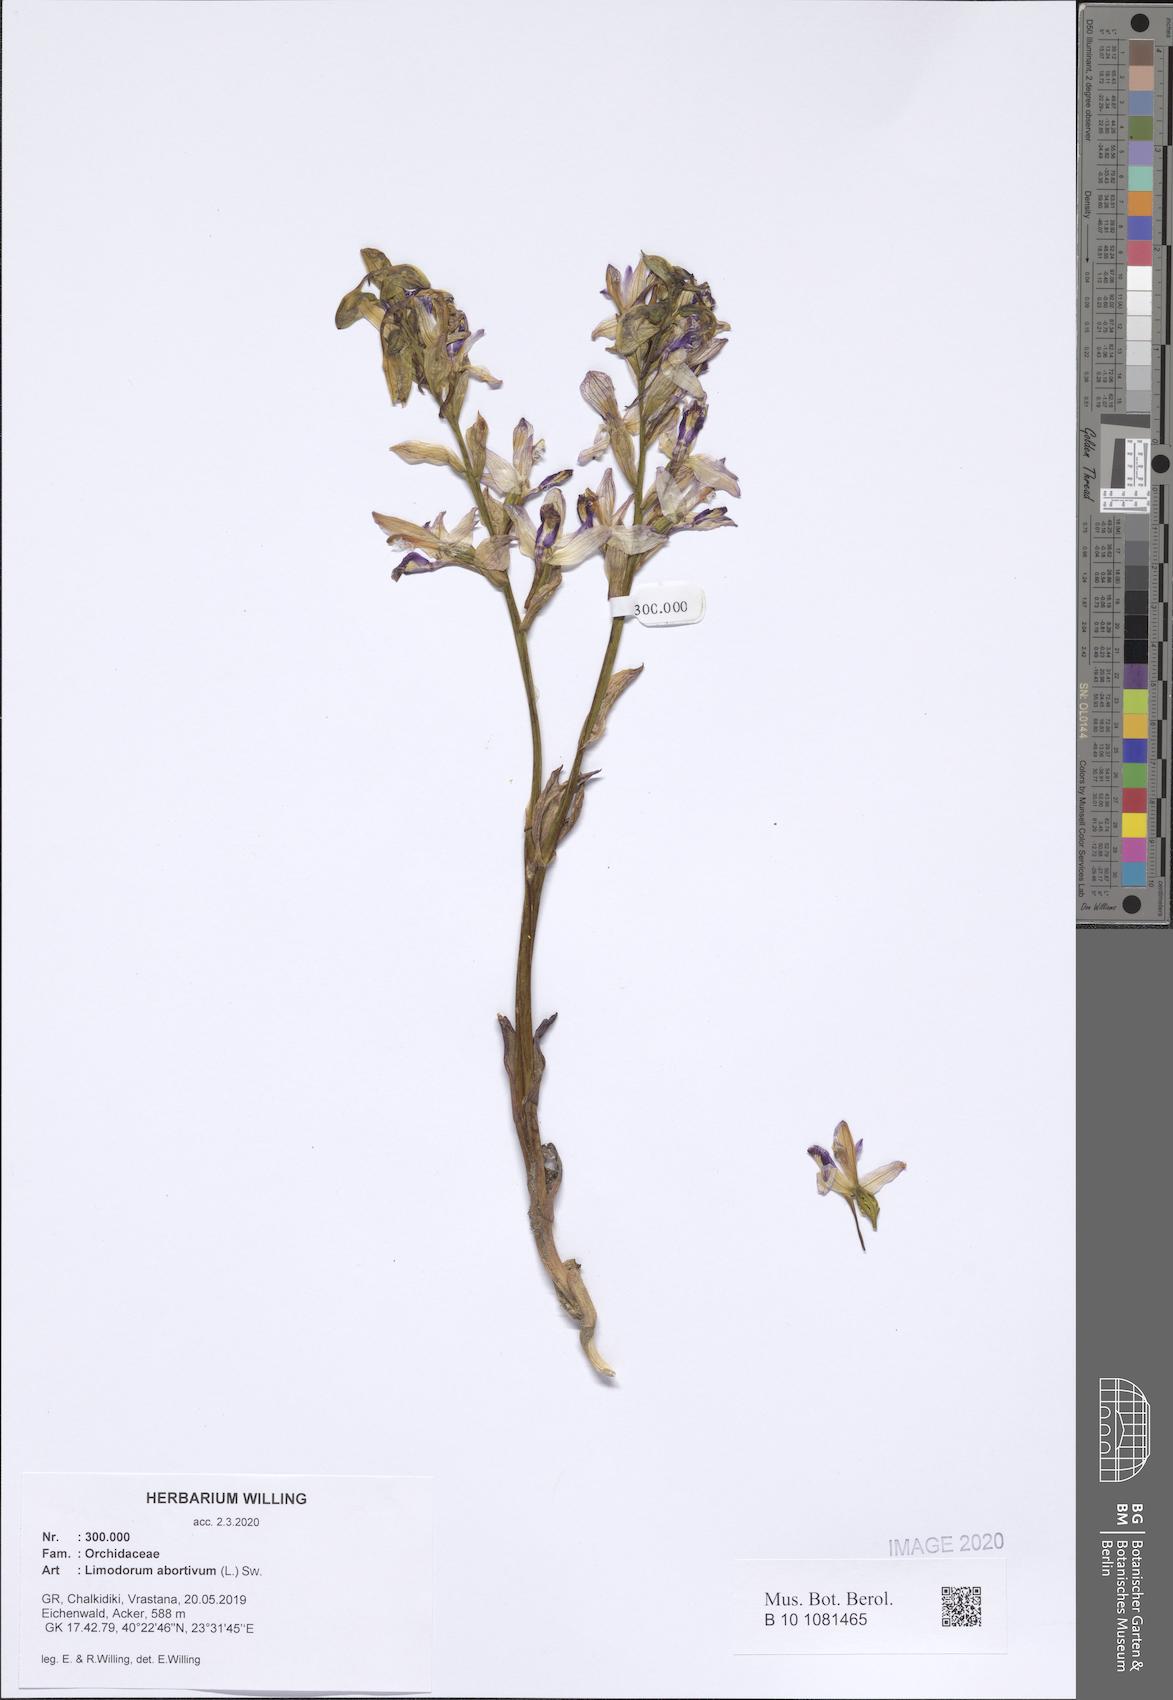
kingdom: Plantae
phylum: Tracheophyta
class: Liliopsida
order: Asparagales
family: Orchidaceae
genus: Limodorum
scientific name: Limodorum abortivum
